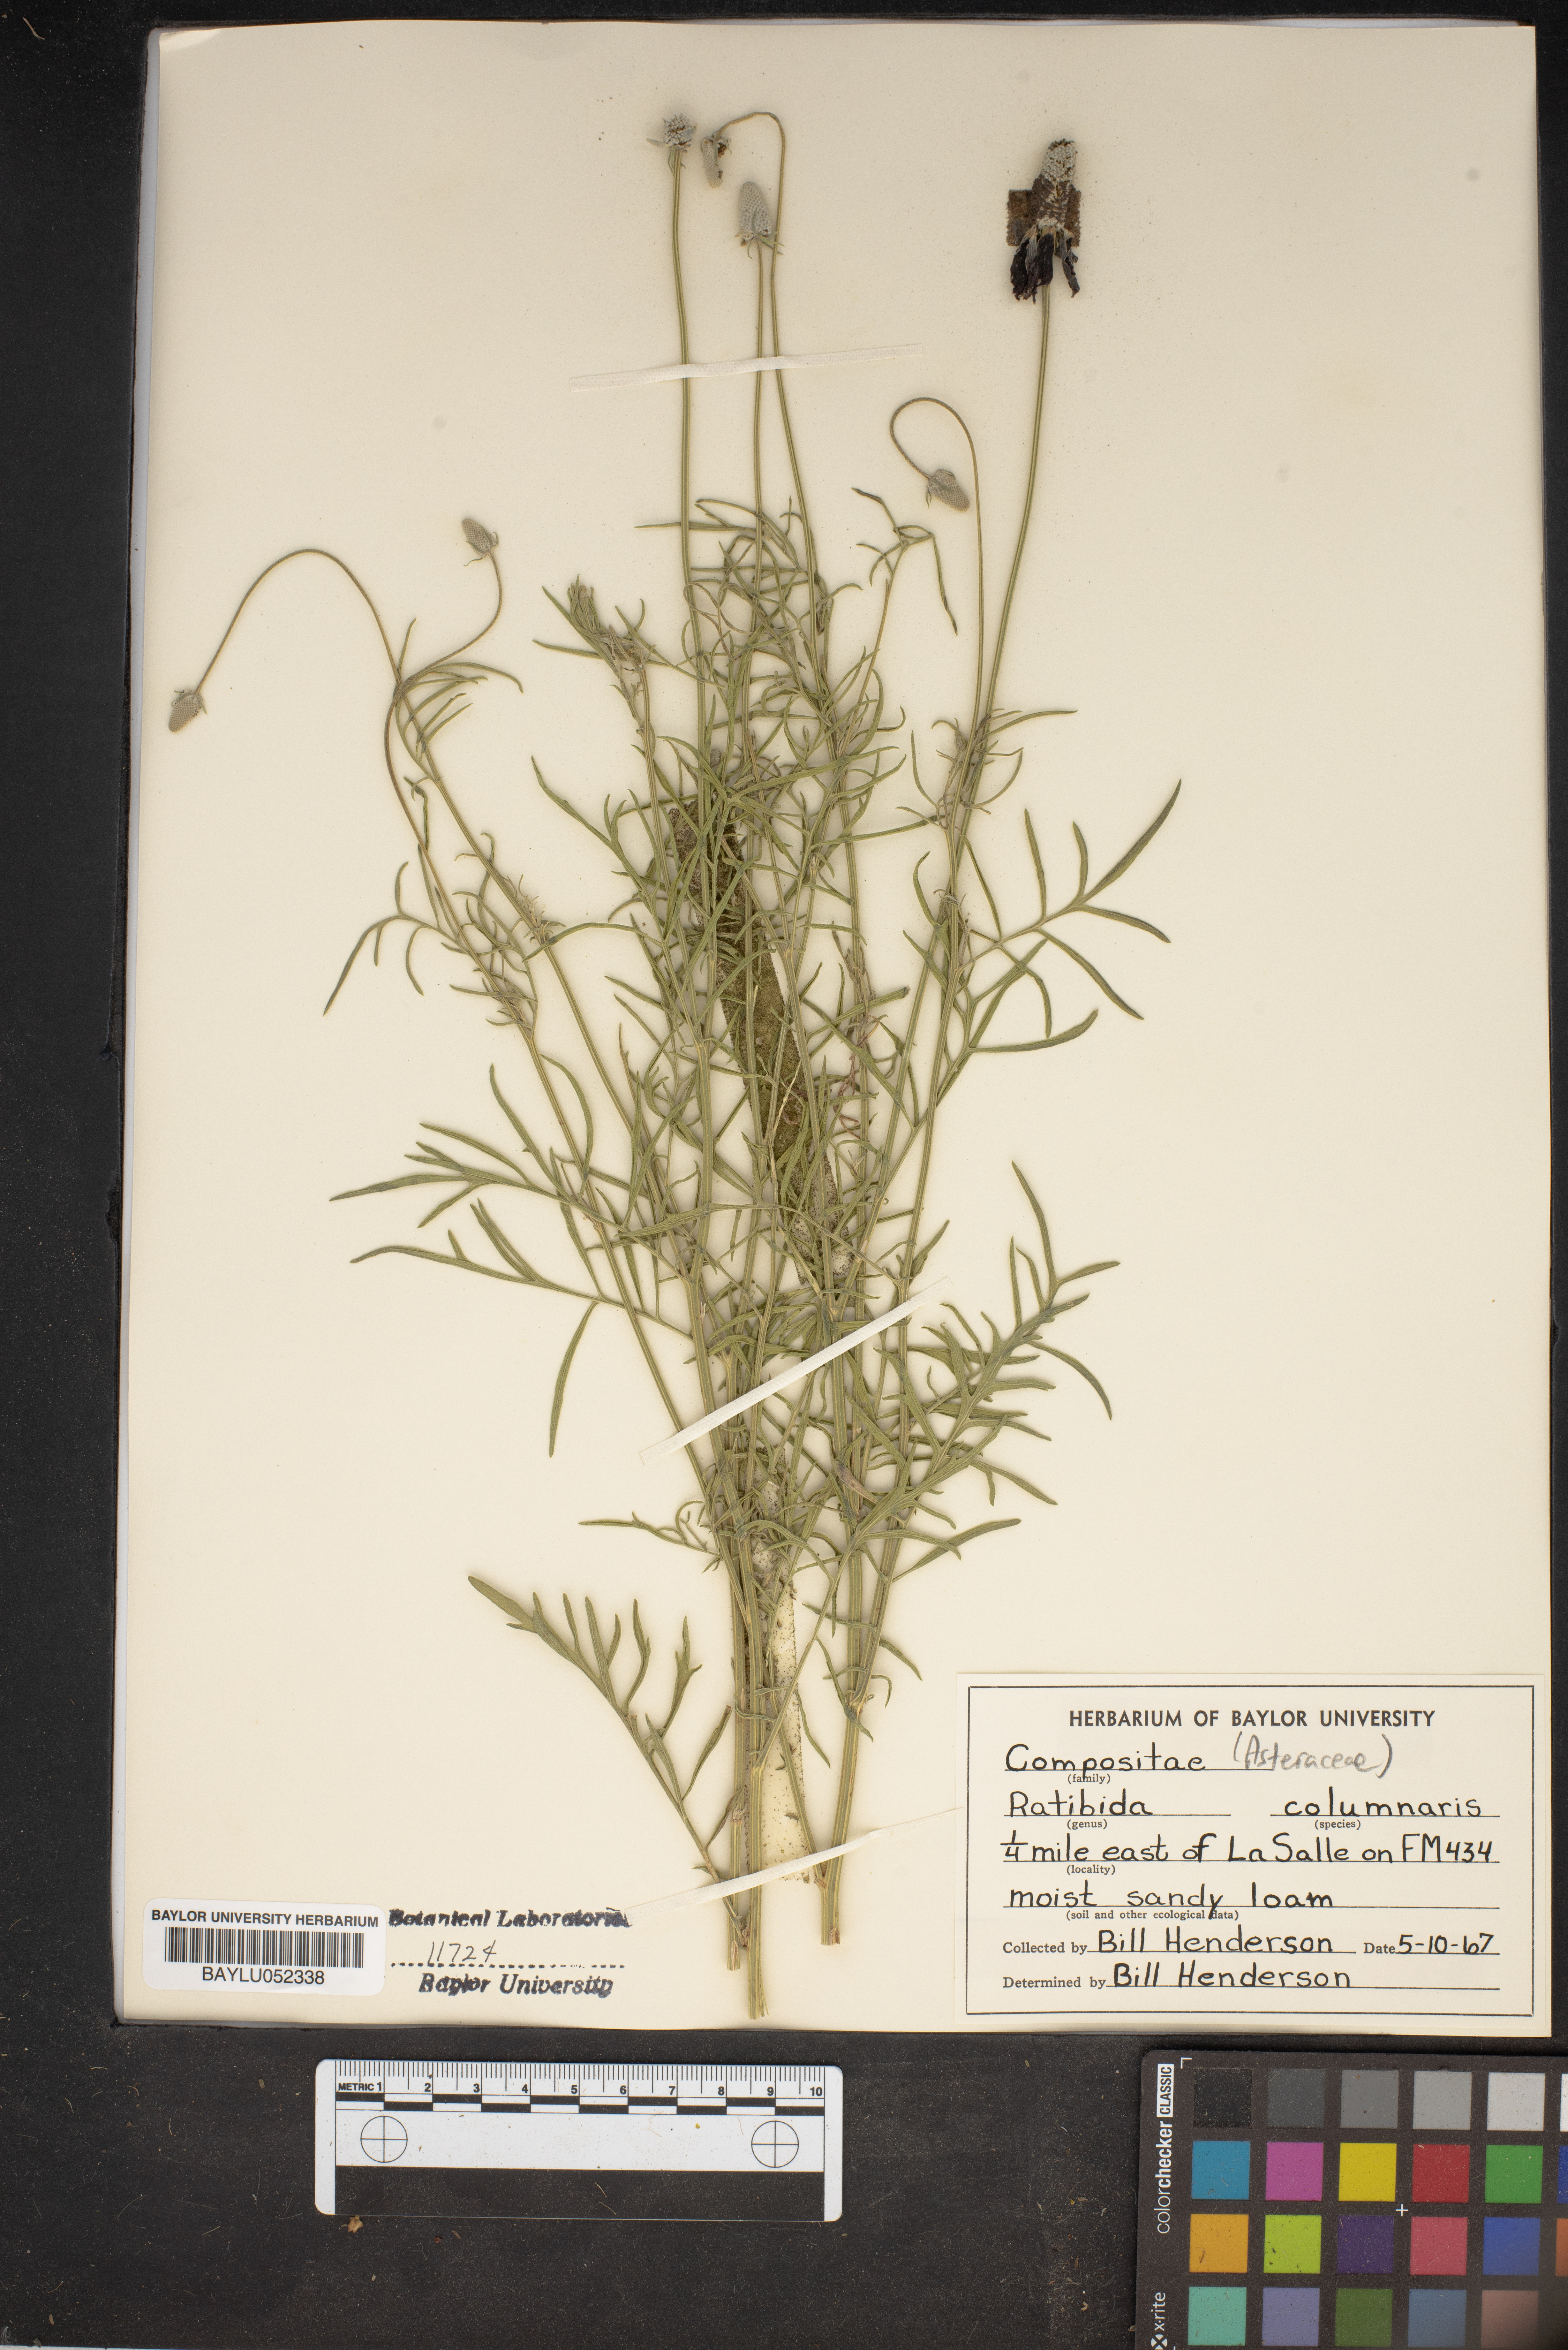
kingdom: Plantae
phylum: Tracheophyta
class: Magnoliopsida
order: Asterales
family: Asteraceae
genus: Ratibida
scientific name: Ratibida columnifera
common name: Prairie coneflower
